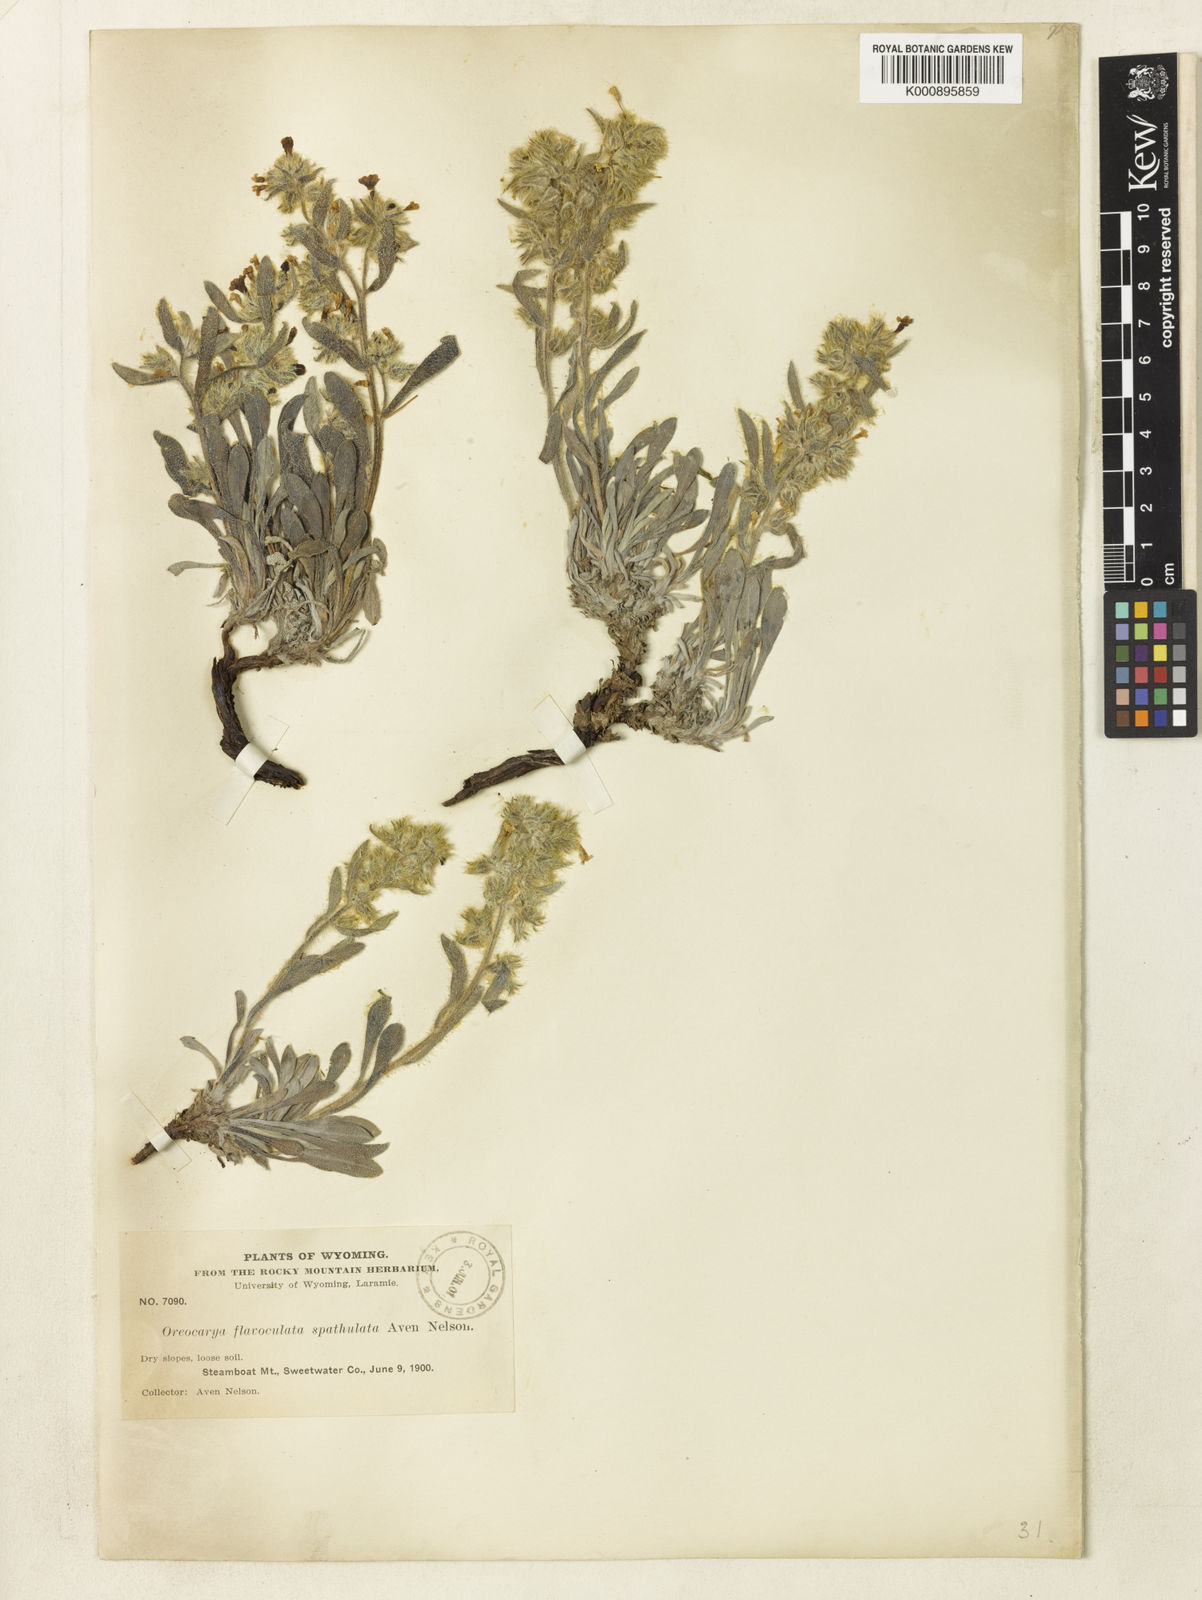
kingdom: Plantae
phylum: Tracheophyta
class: Magnoliopsida
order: Boraginales
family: Boraginaceae
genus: Oreocarya
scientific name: Oreocarya flavoculata
